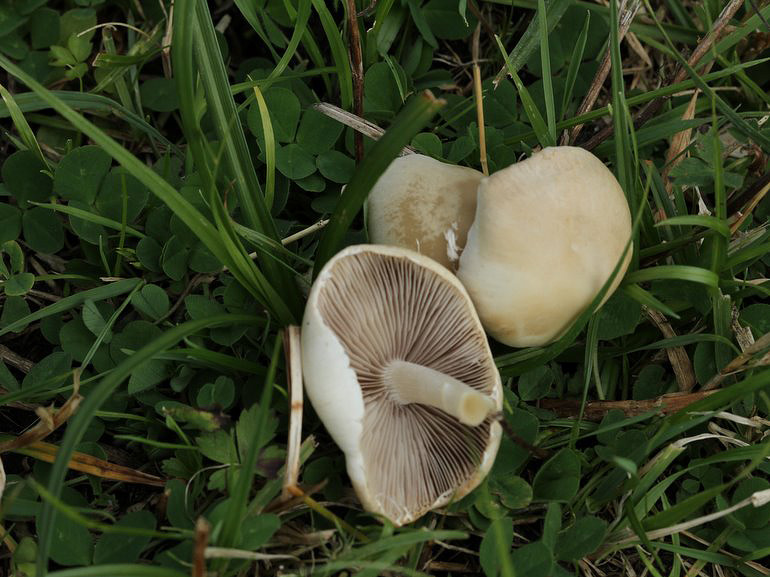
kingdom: Fungi
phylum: Basidiomycota
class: Agaricomycetes
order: Agaricales
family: Psathyrellaceae
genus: Candolleomyces
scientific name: Candolleomyces candolleanus
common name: Candolles mørkhat
